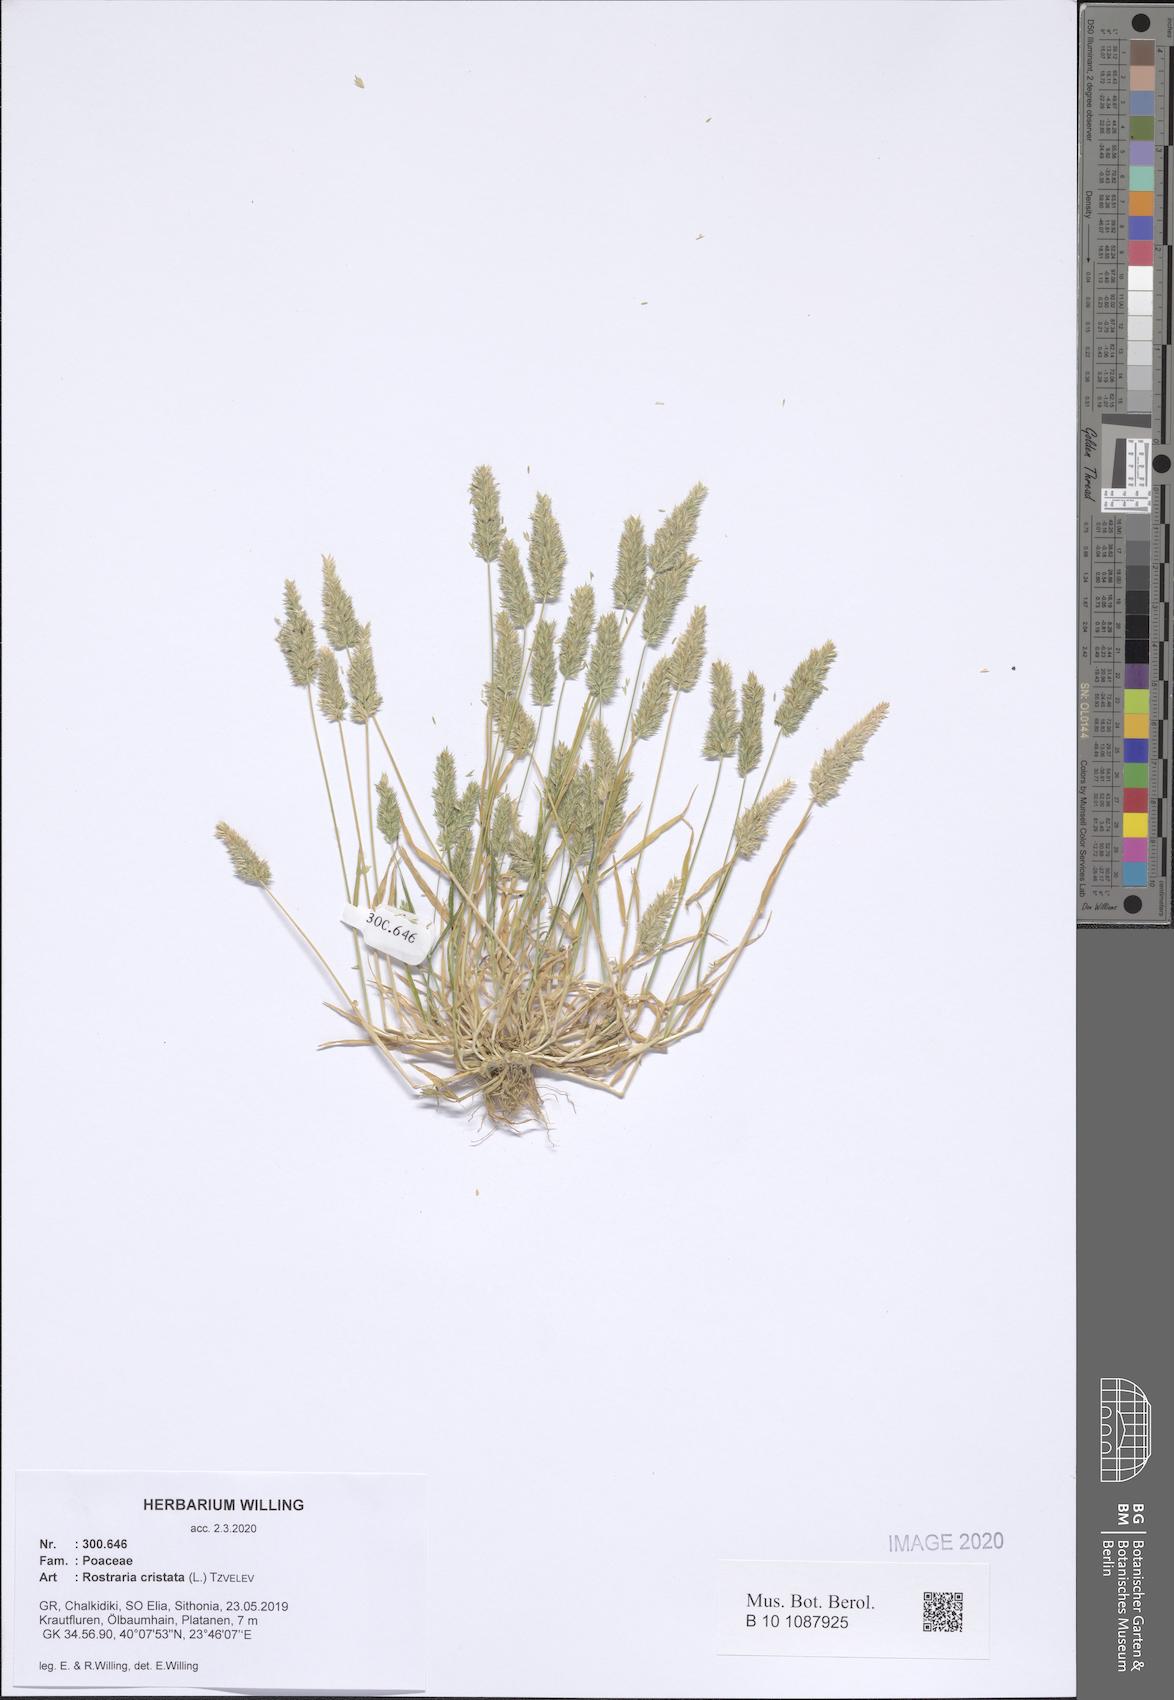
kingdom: Plantae
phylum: Tracheophyta
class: Liliopsida
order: Poales
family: Poaceae
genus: Rostraria
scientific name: Rostraria cristata
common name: Mediterranean hair-grass
